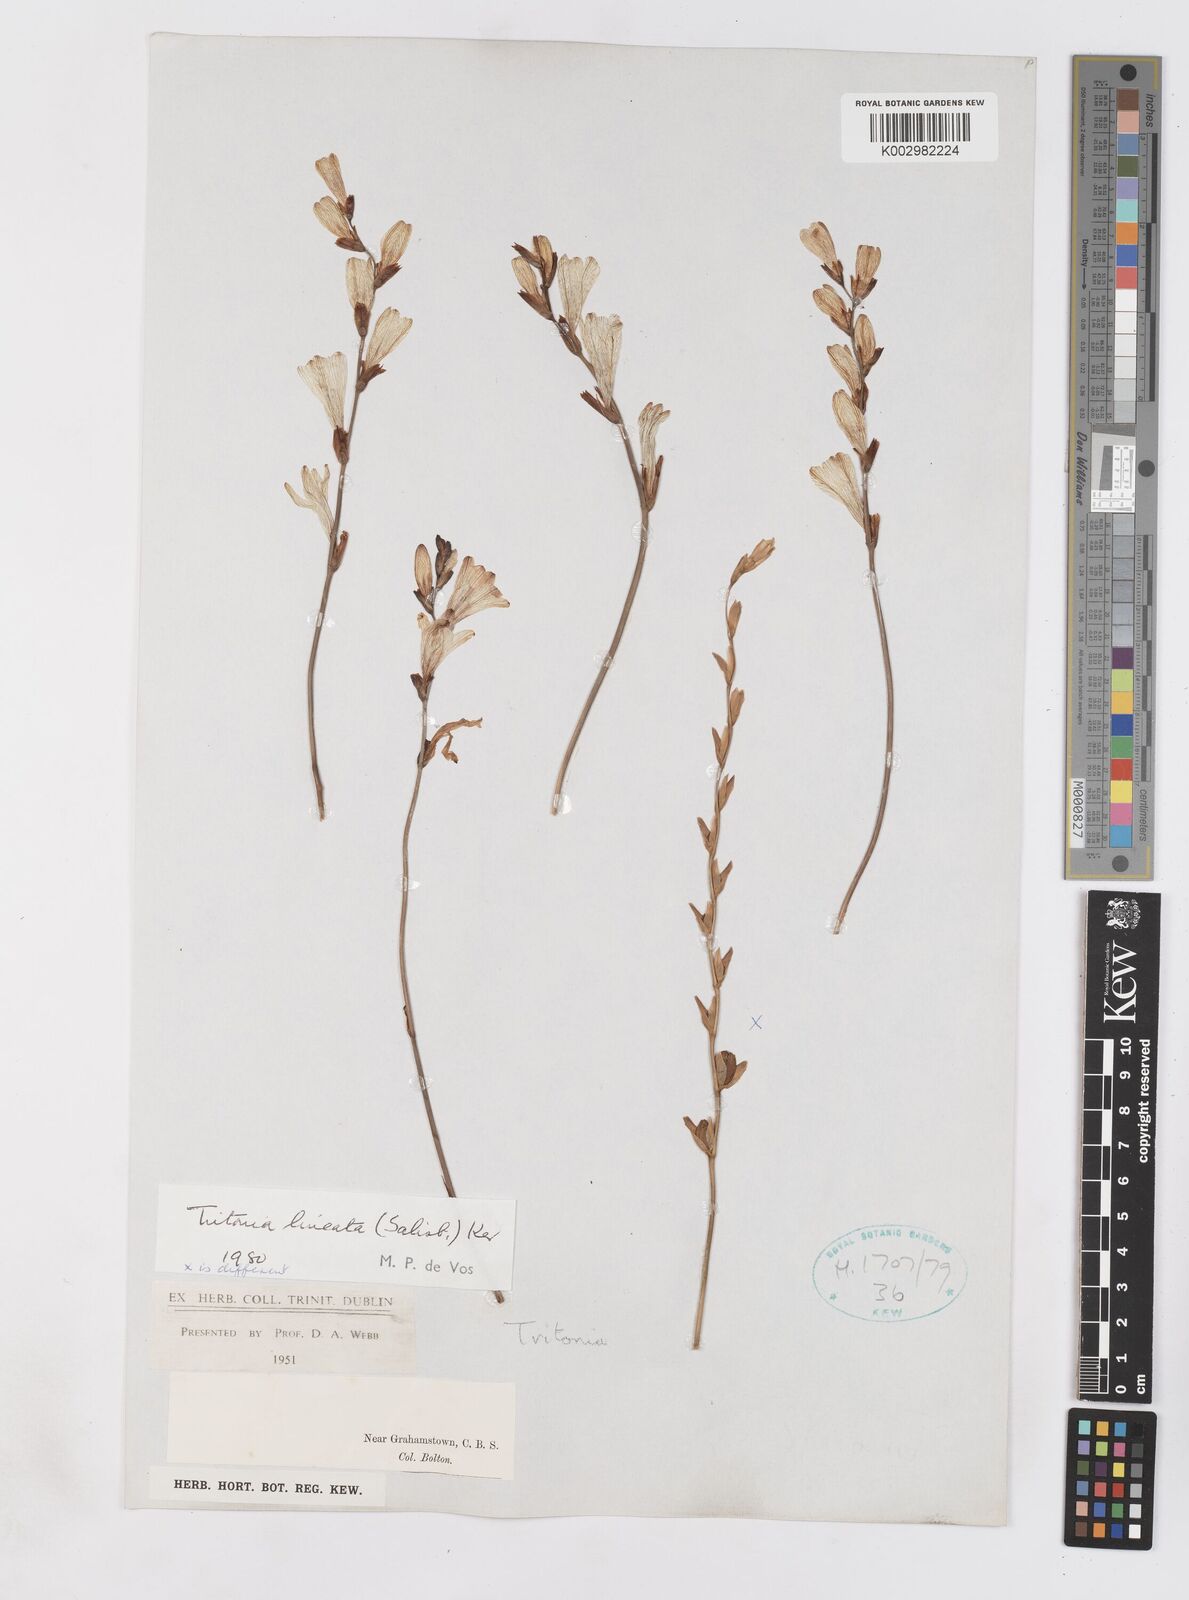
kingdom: Plantae
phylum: Tracheophyta
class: Liliopsida
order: Asparagales
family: Iridaceae
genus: Tritonia
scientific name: Tritonia gladiolaris
